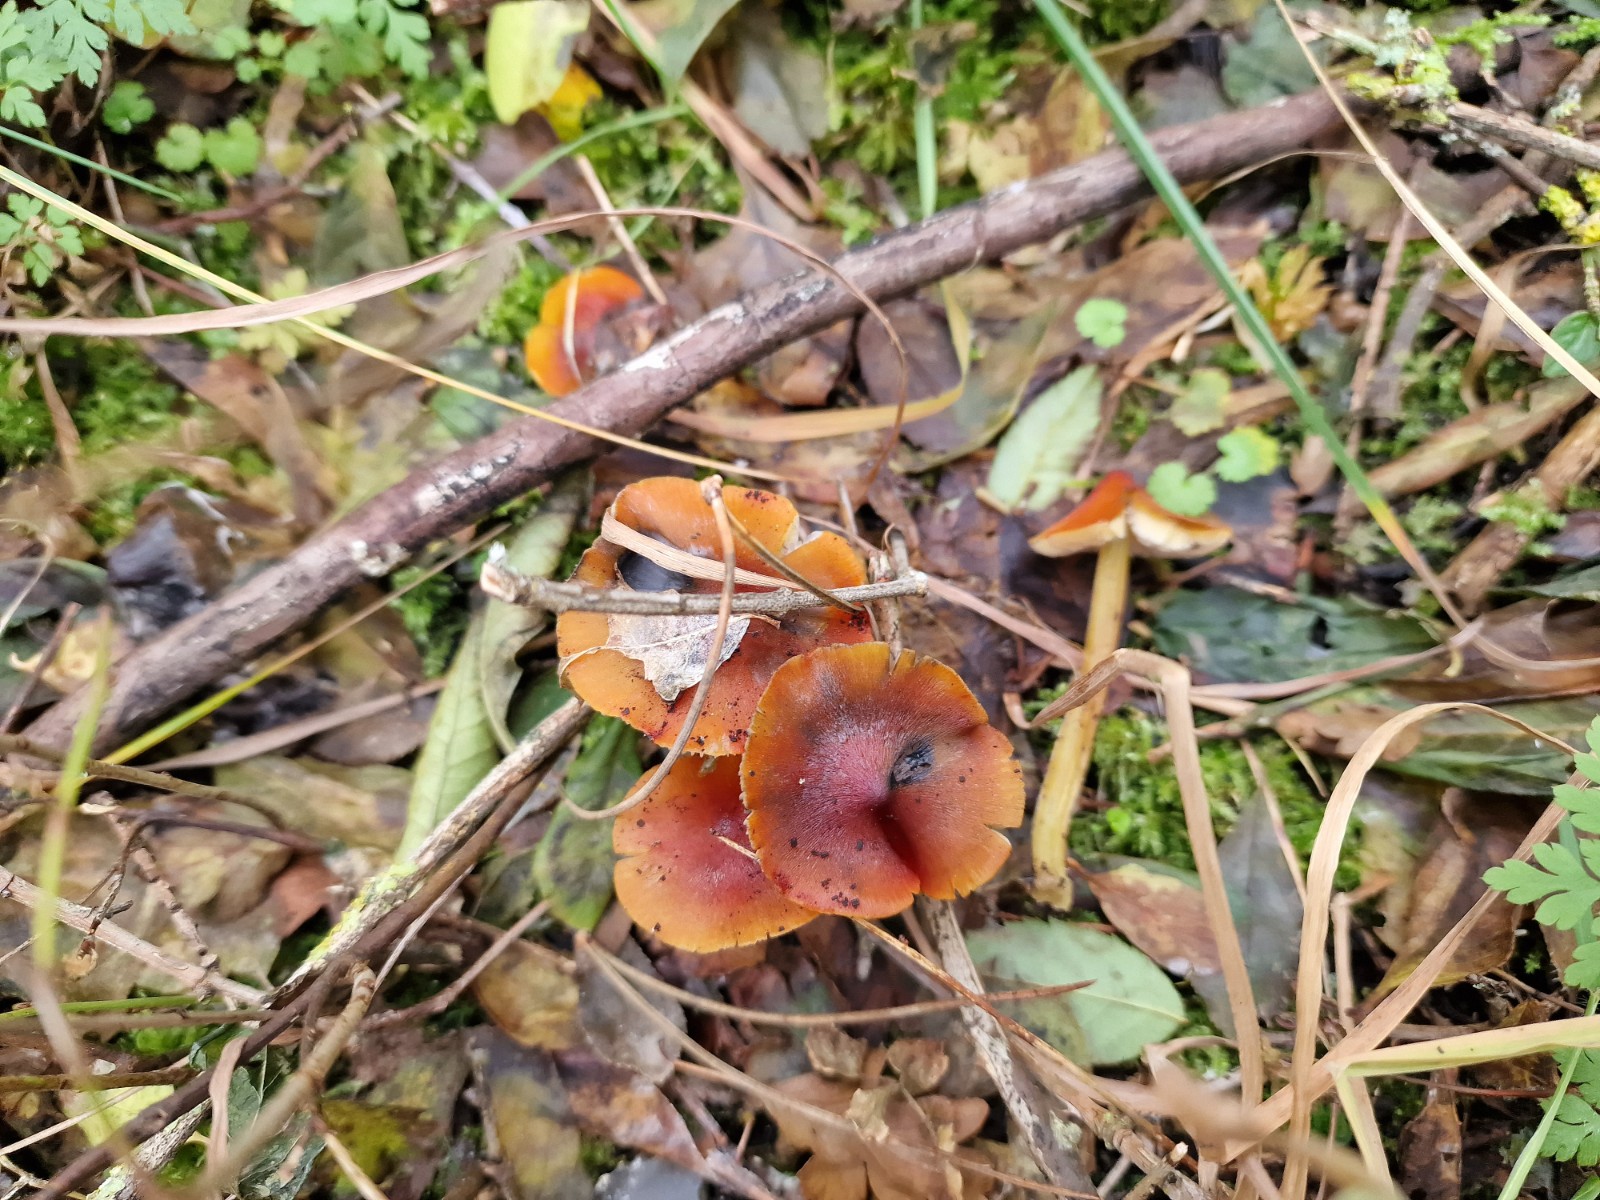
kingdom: Fungi
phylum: Basidiomycota
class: Agaricomycetes
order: Agaricales
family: Hygrophoraceae
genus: Hygrocybe
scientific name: Hygrocybe conica
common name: kegle-vokshat
